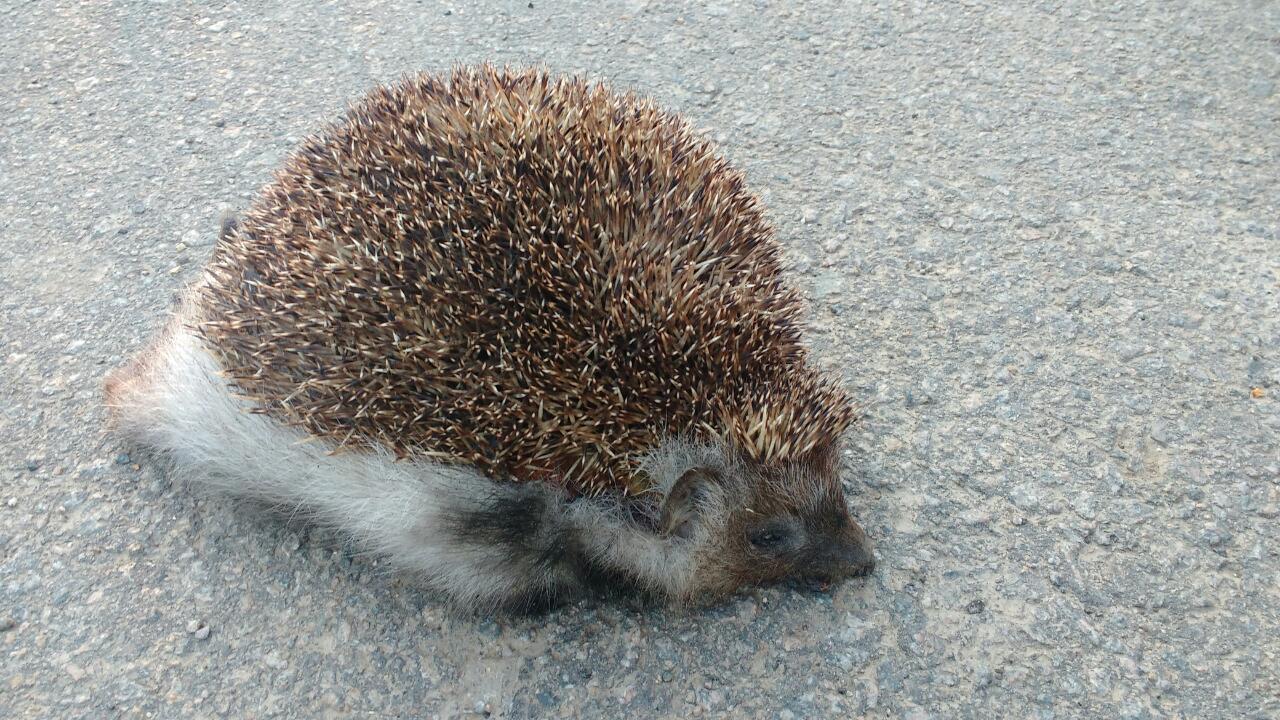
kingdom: Animalia
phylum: Chordata
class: Mammalia
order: Erinaceomorpha
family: Erinaceidae
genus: Erinaceus
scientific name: Erinaceus
